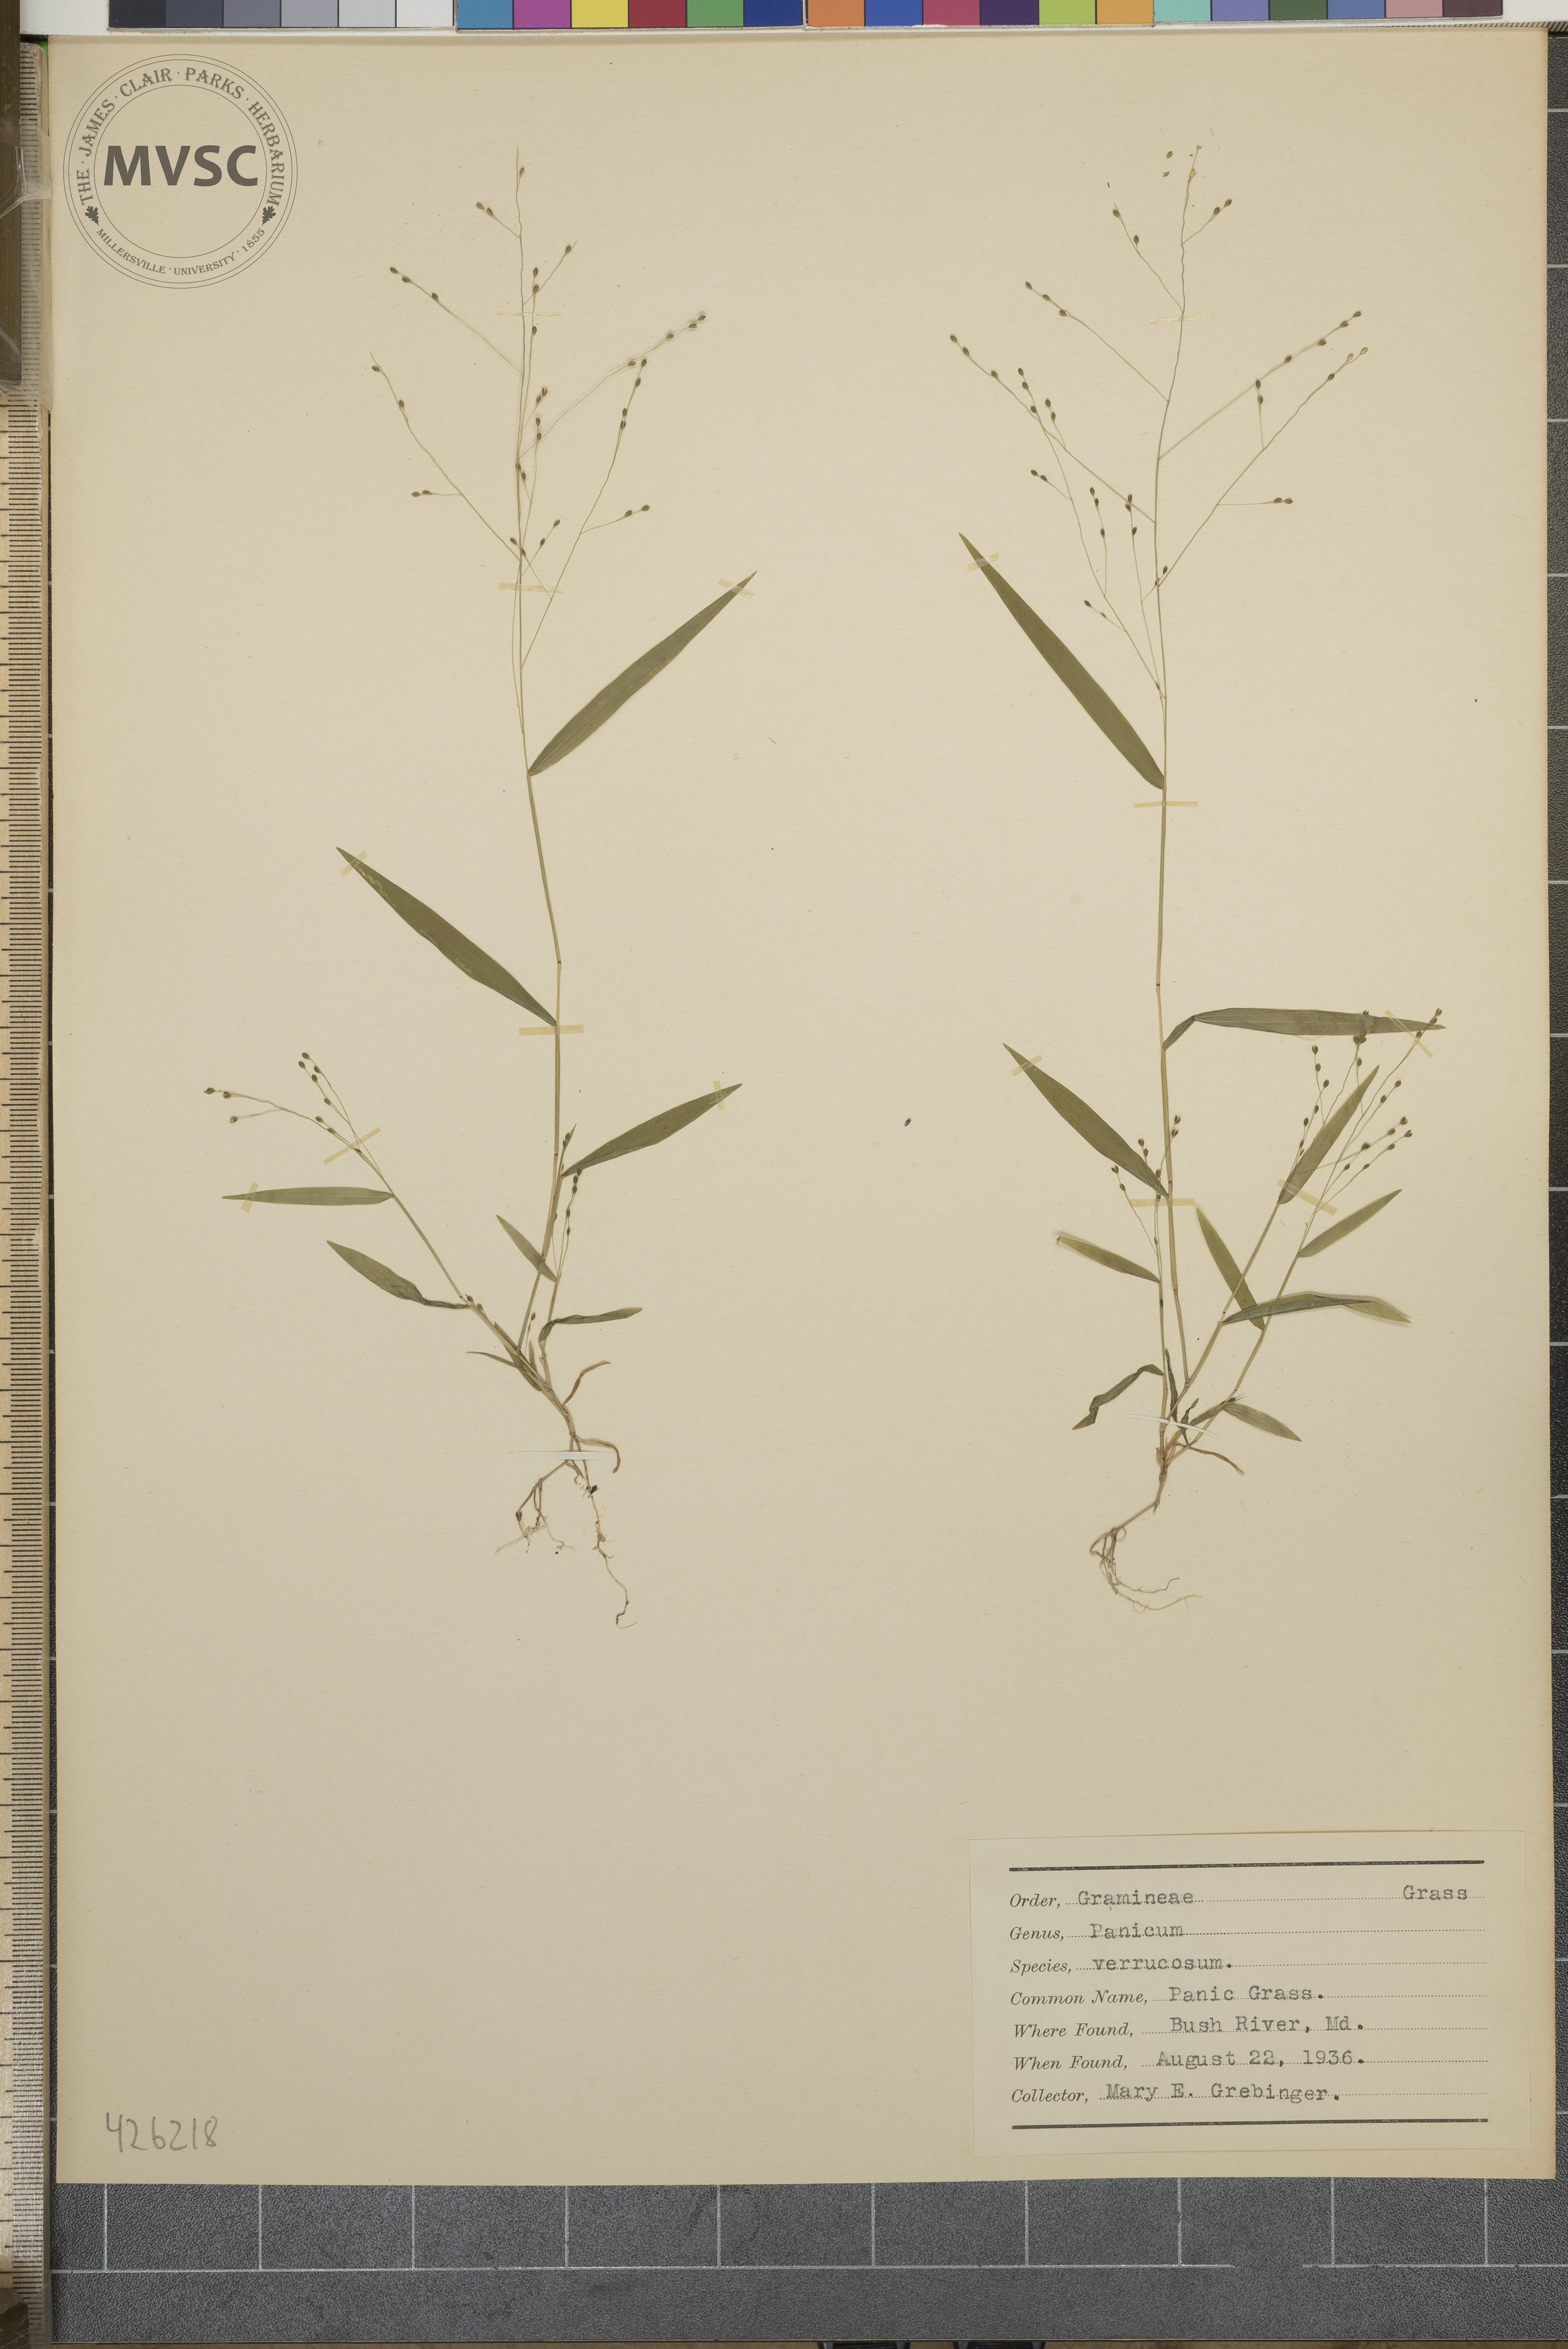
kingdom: Plantae
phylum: Tracheophyta
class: Liliopsida
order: Poales
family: Poaceae
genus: Kellochloa
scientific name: Kellochloa verrucosa
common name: Panic grass
